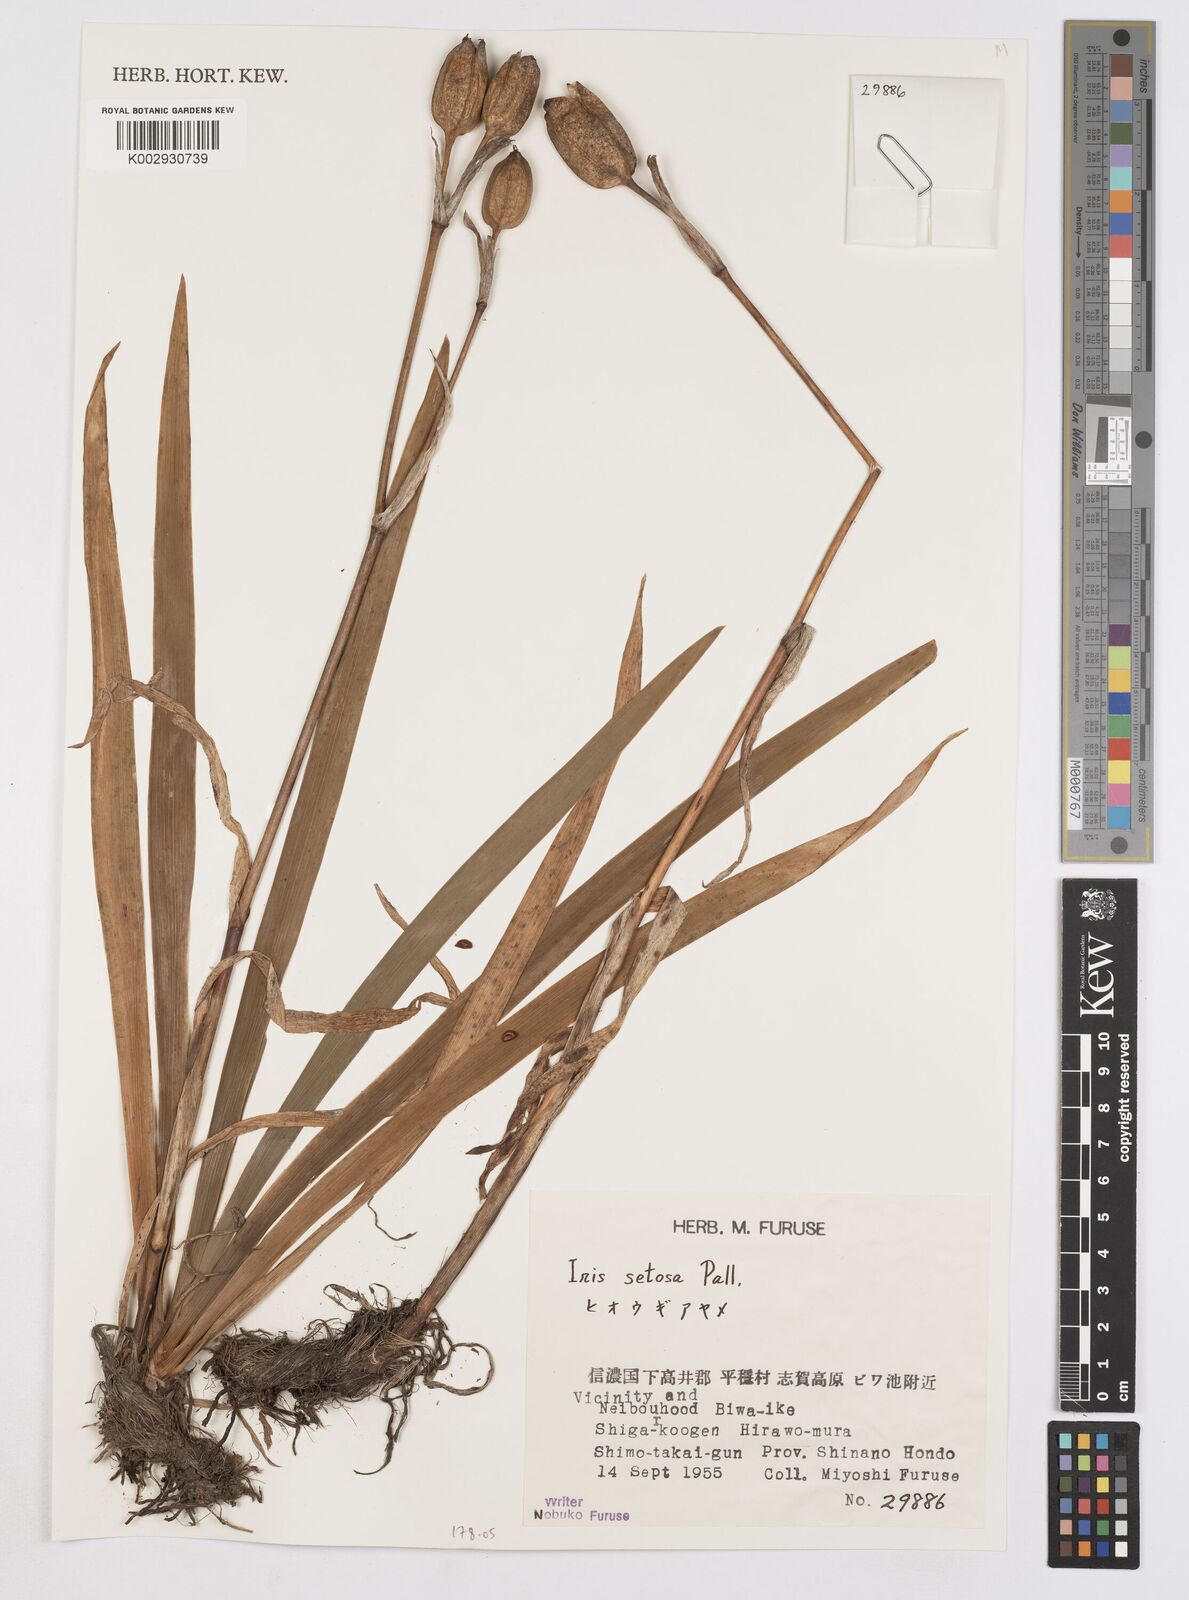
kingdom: Plantae
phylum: Tracheophyta
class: Liliopsida
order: Asparagales
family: Iridaceae
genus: Iris
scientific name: Iris setosa
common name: Arctic blue flag
